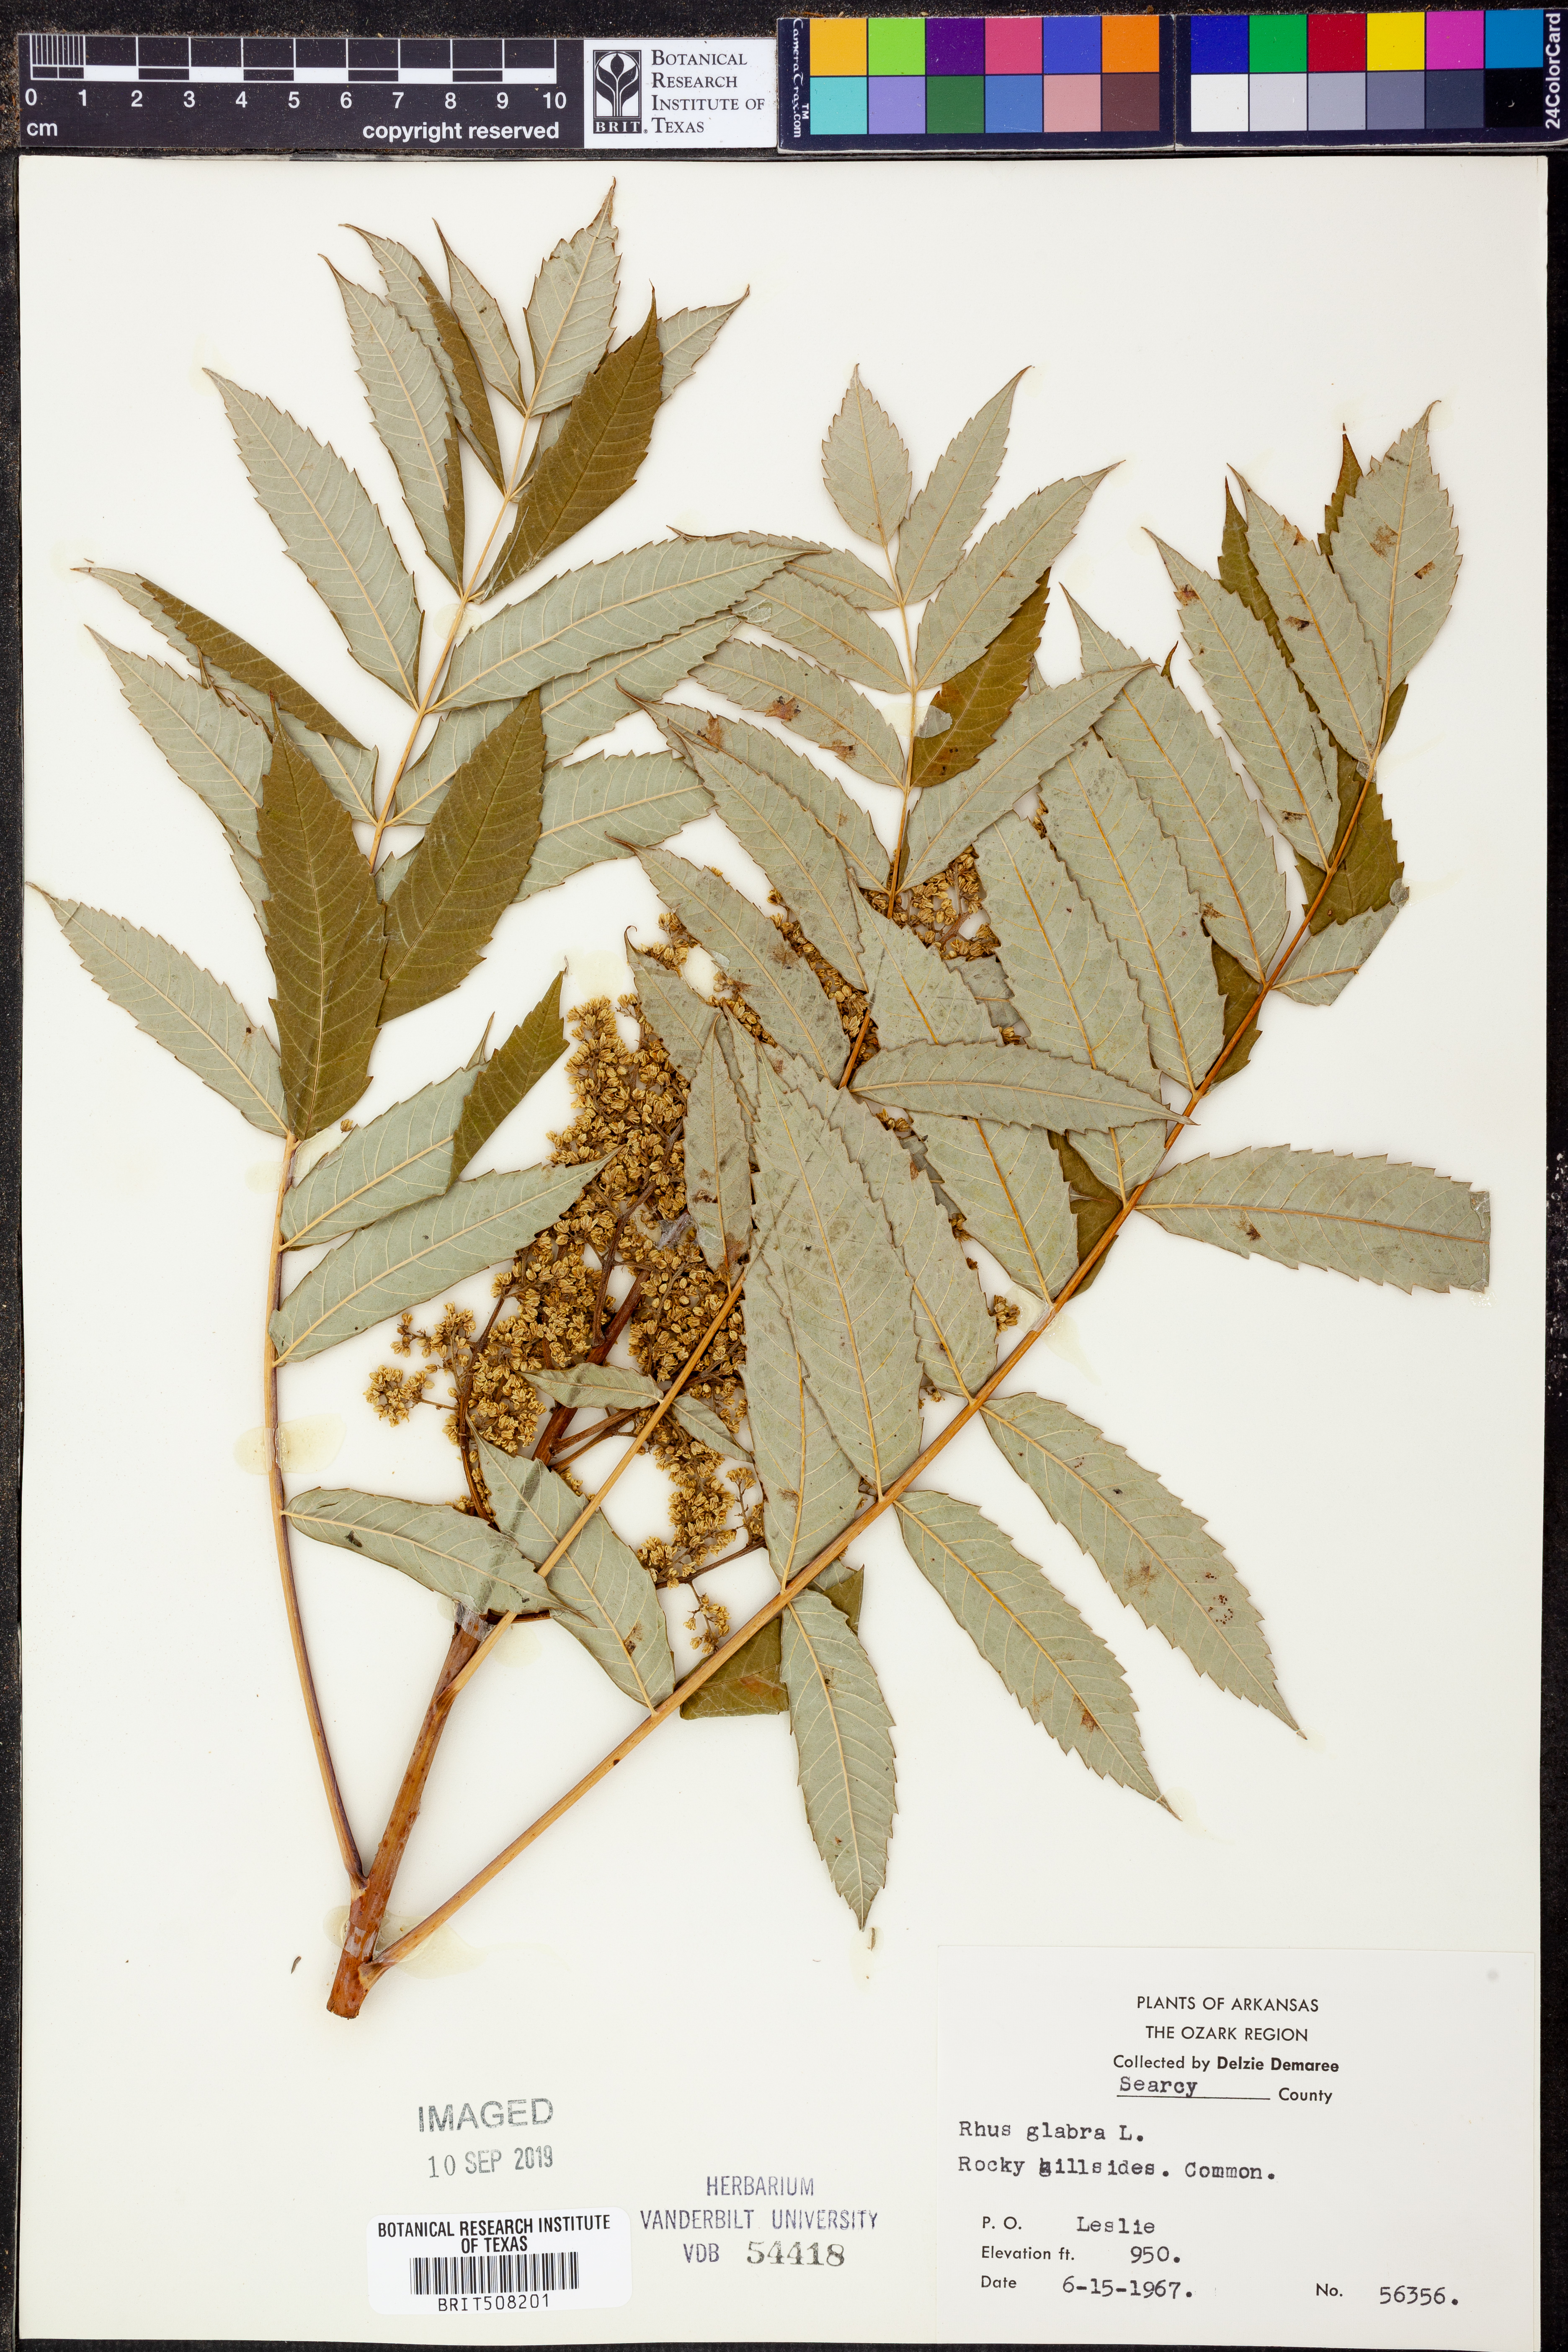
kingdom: Plantae
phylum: Tracheophyta
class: Magnoliopsida
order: Sapindales
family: Anacardiaceae
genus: Rhus
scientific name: Rhus glabra
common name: Scarlet sumac
